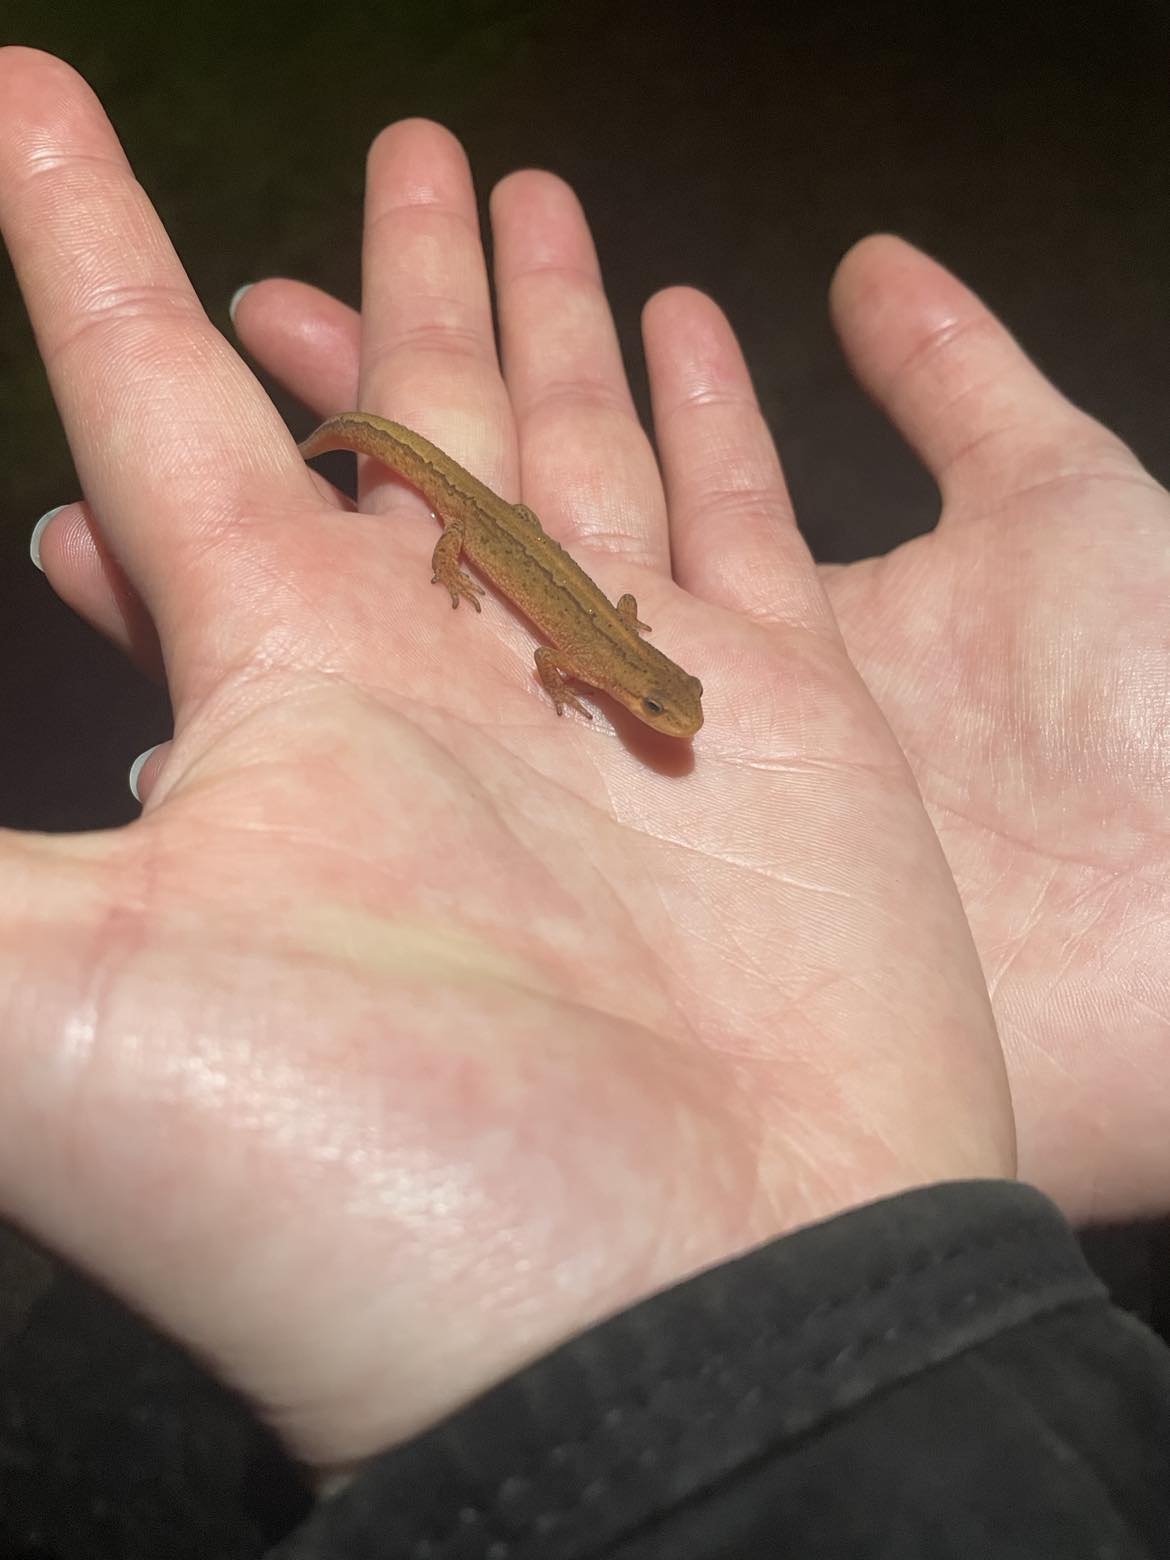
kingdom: Animalia
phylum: Chordata
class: Amphibia
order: Caudata
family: Salamandridae
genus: Lissotriton
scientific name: Lissotriton vulgaris
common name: Lille vandsalamander
